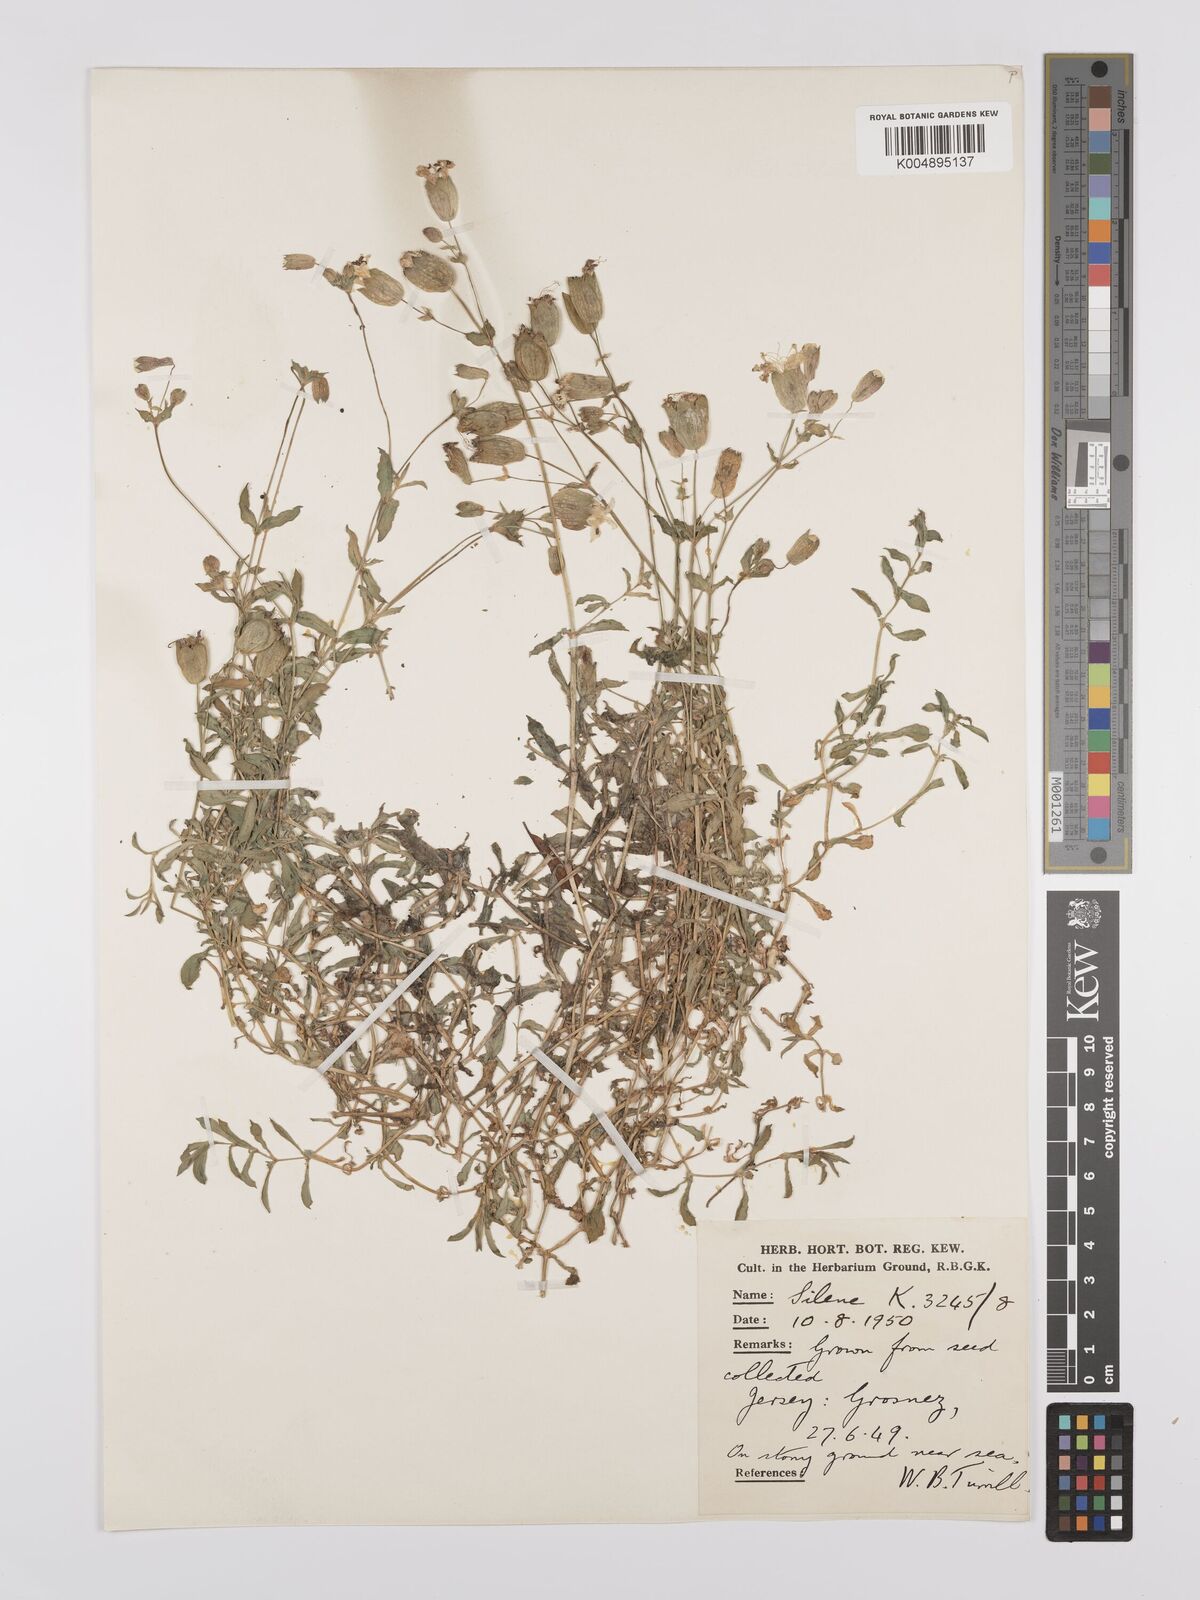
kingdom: Plantae
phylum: Tracheophyta
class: Magnoliopsida
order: Caryophyllales
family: Caryophyllaceae
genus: Silene
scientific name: Silene uniflora
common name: Sea campion
